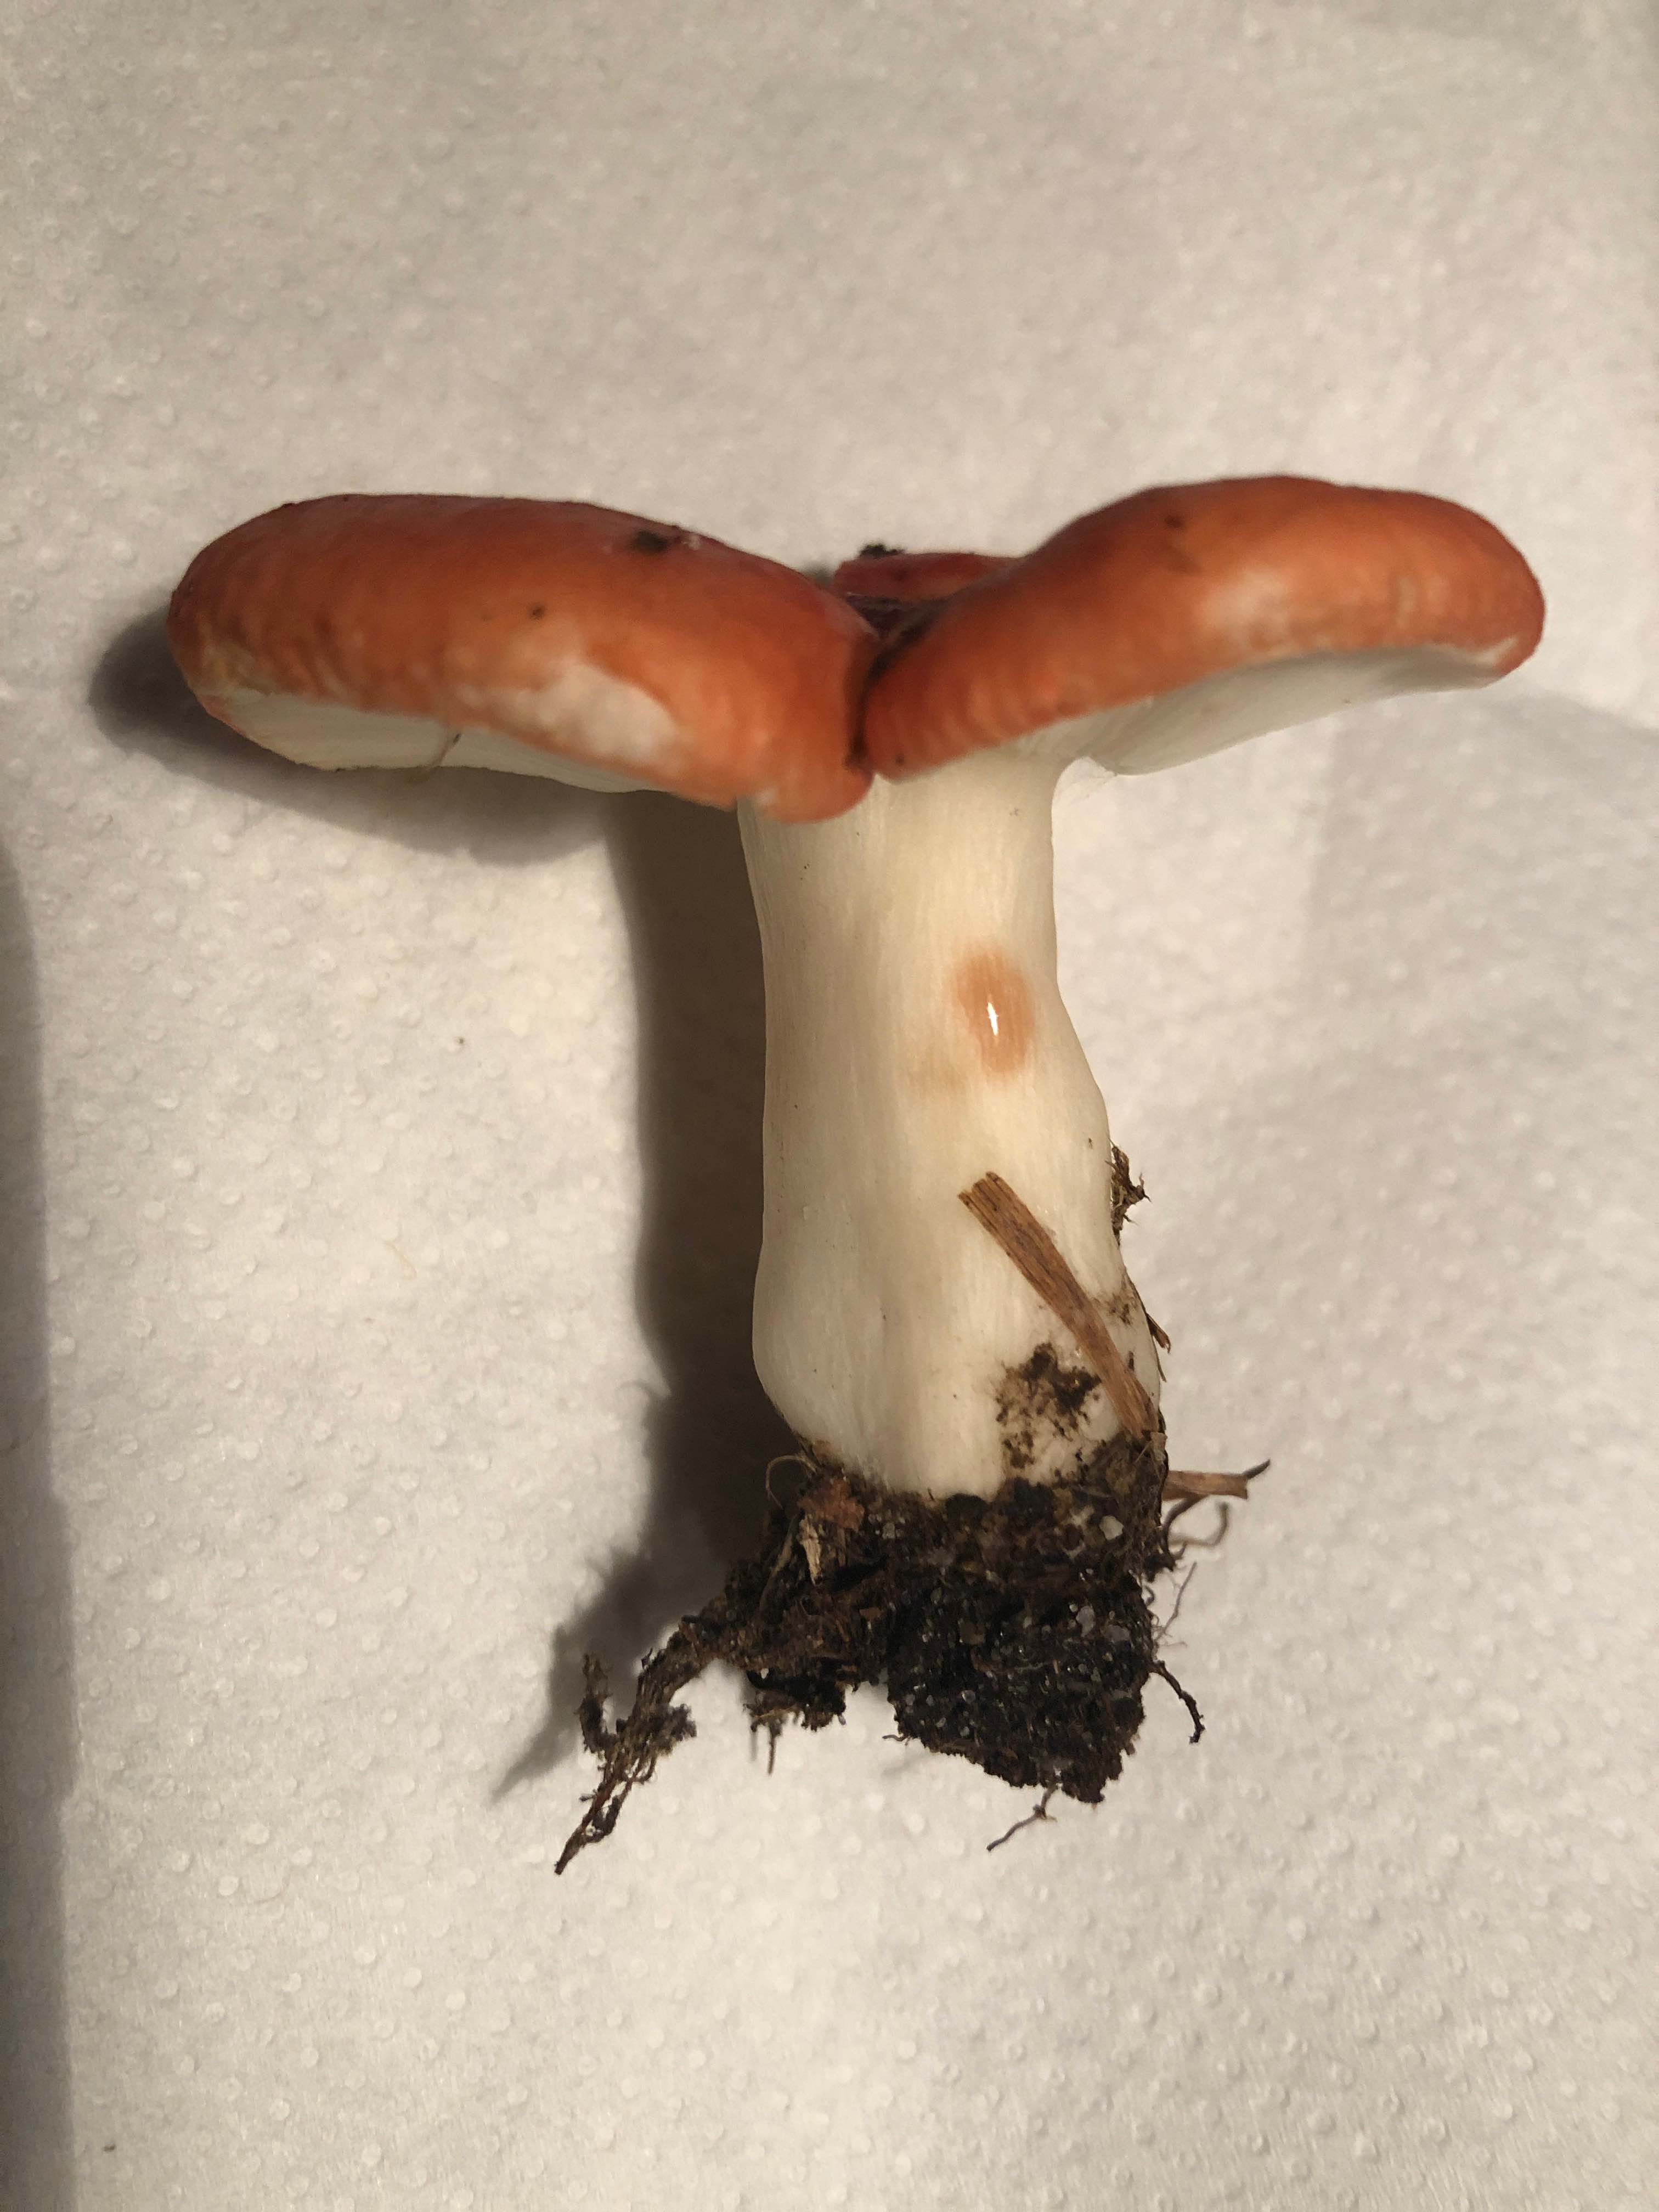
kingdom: Fungi
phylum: Basidiomycota
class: Agaricomycetes
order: Russulales
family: Russulaceae
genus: Russula
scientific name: Russula
